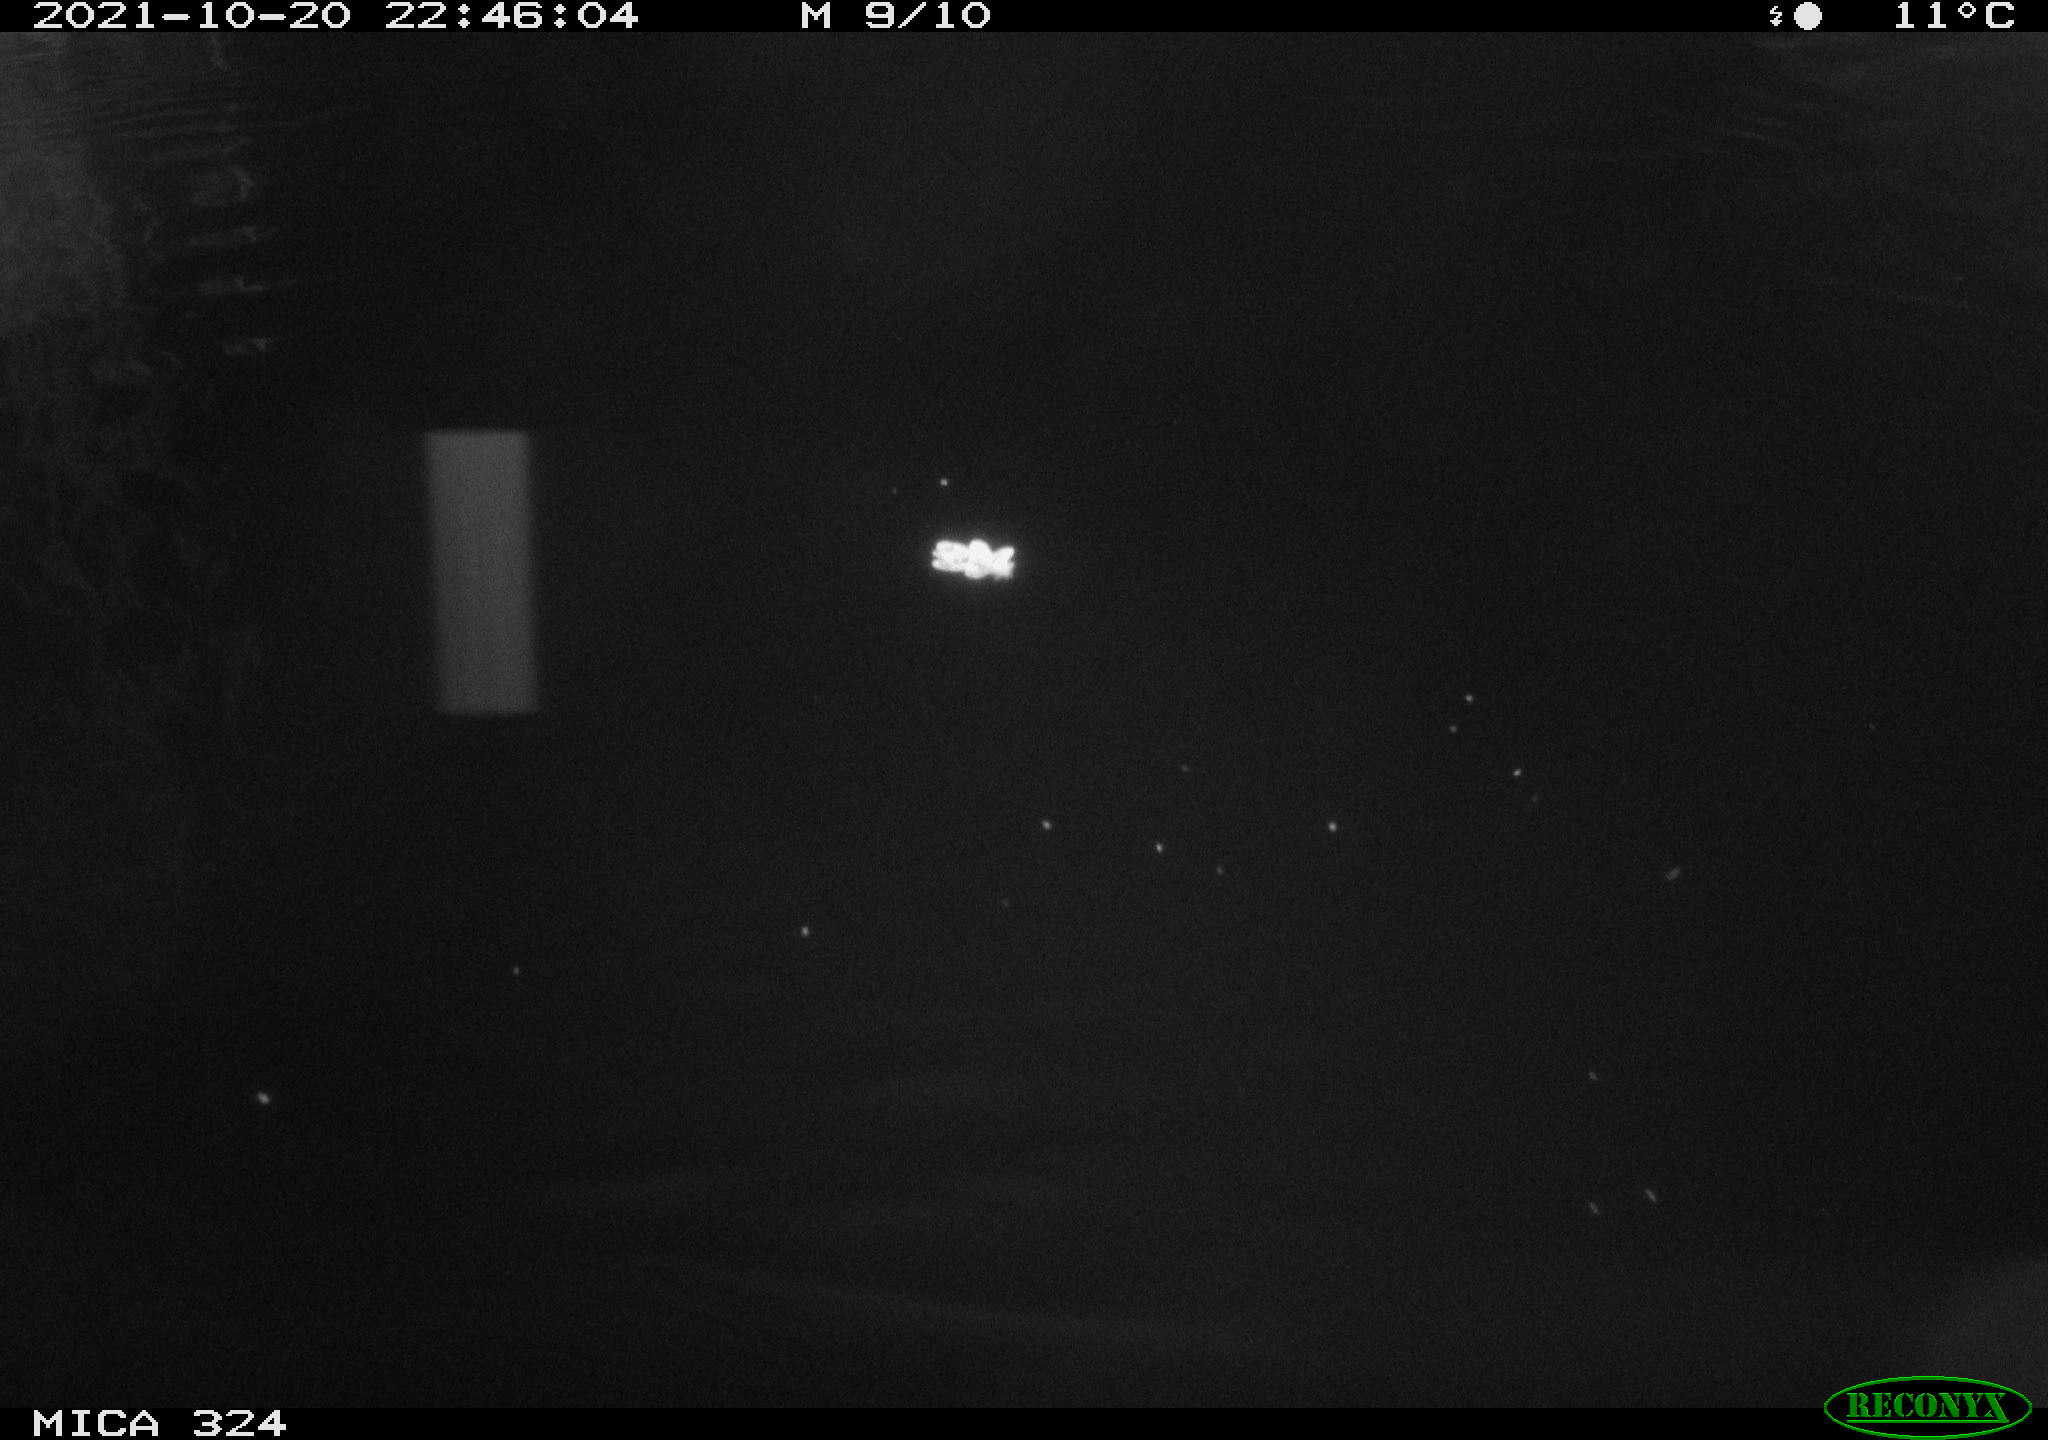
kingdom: Animalia
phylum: Chordata
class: Mammalia
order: Rodentia
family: Cricetidae
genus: Ondatra
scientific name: Ondatra zibethicus
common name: Muskrat
